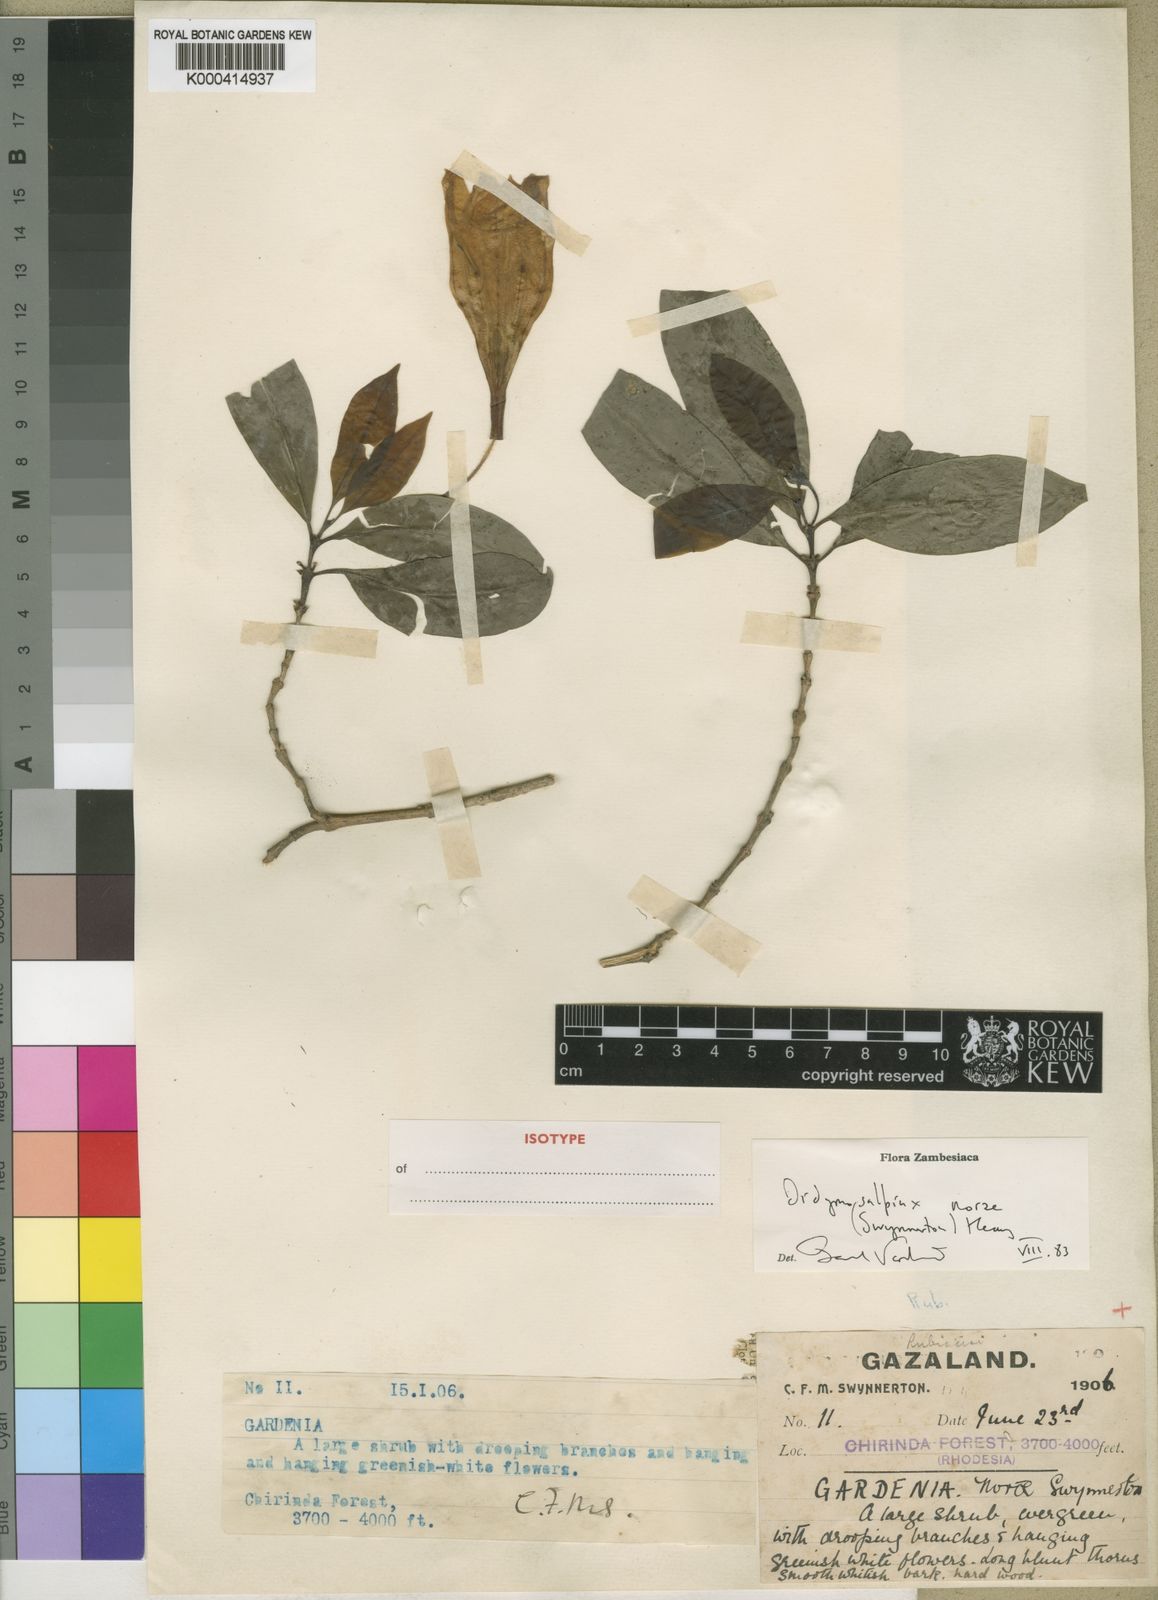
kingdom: Plantae
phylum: Tracheophyta
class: Magnoliopsida
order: Gentianales
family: Rubiaceae
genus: Didymosalpinx
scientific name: Didymosalpinx norae
